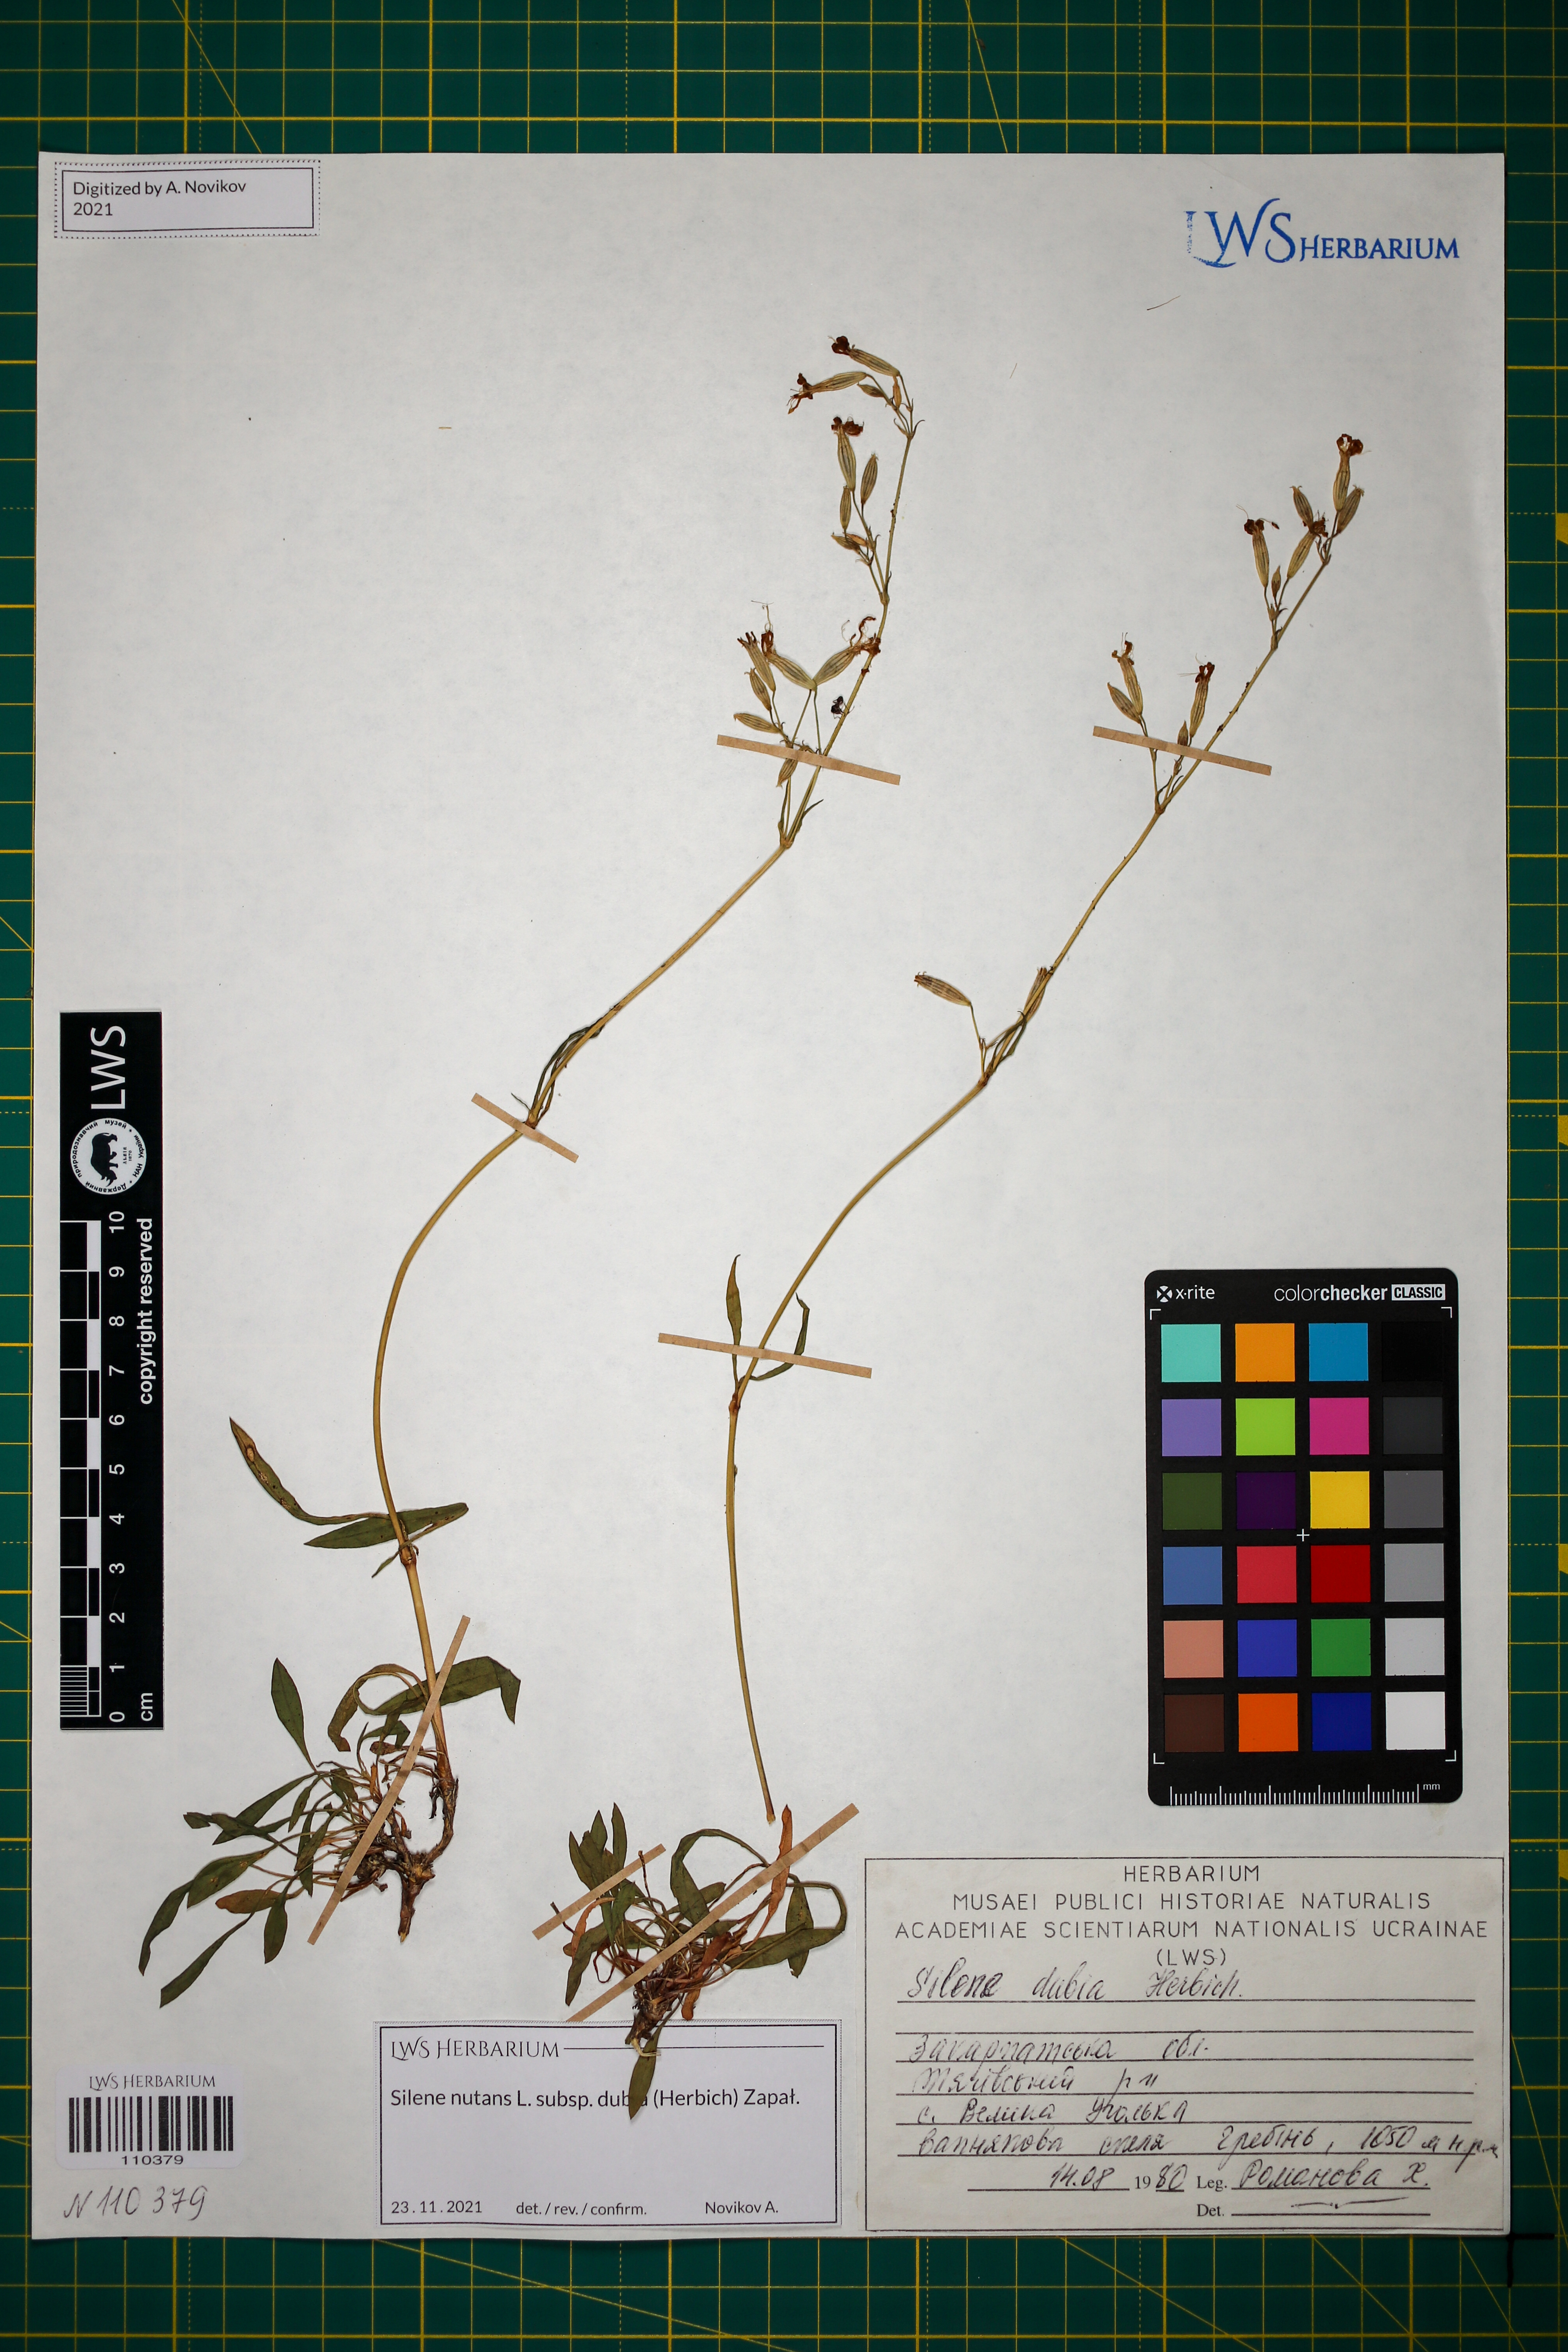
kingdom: Plantae
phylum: Tracheophyta
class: Magnoliopsida
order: Caryophyllales
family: Caryophyllaceae
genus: Silene
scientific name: Silene nutans
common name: Nottingham catchfly
